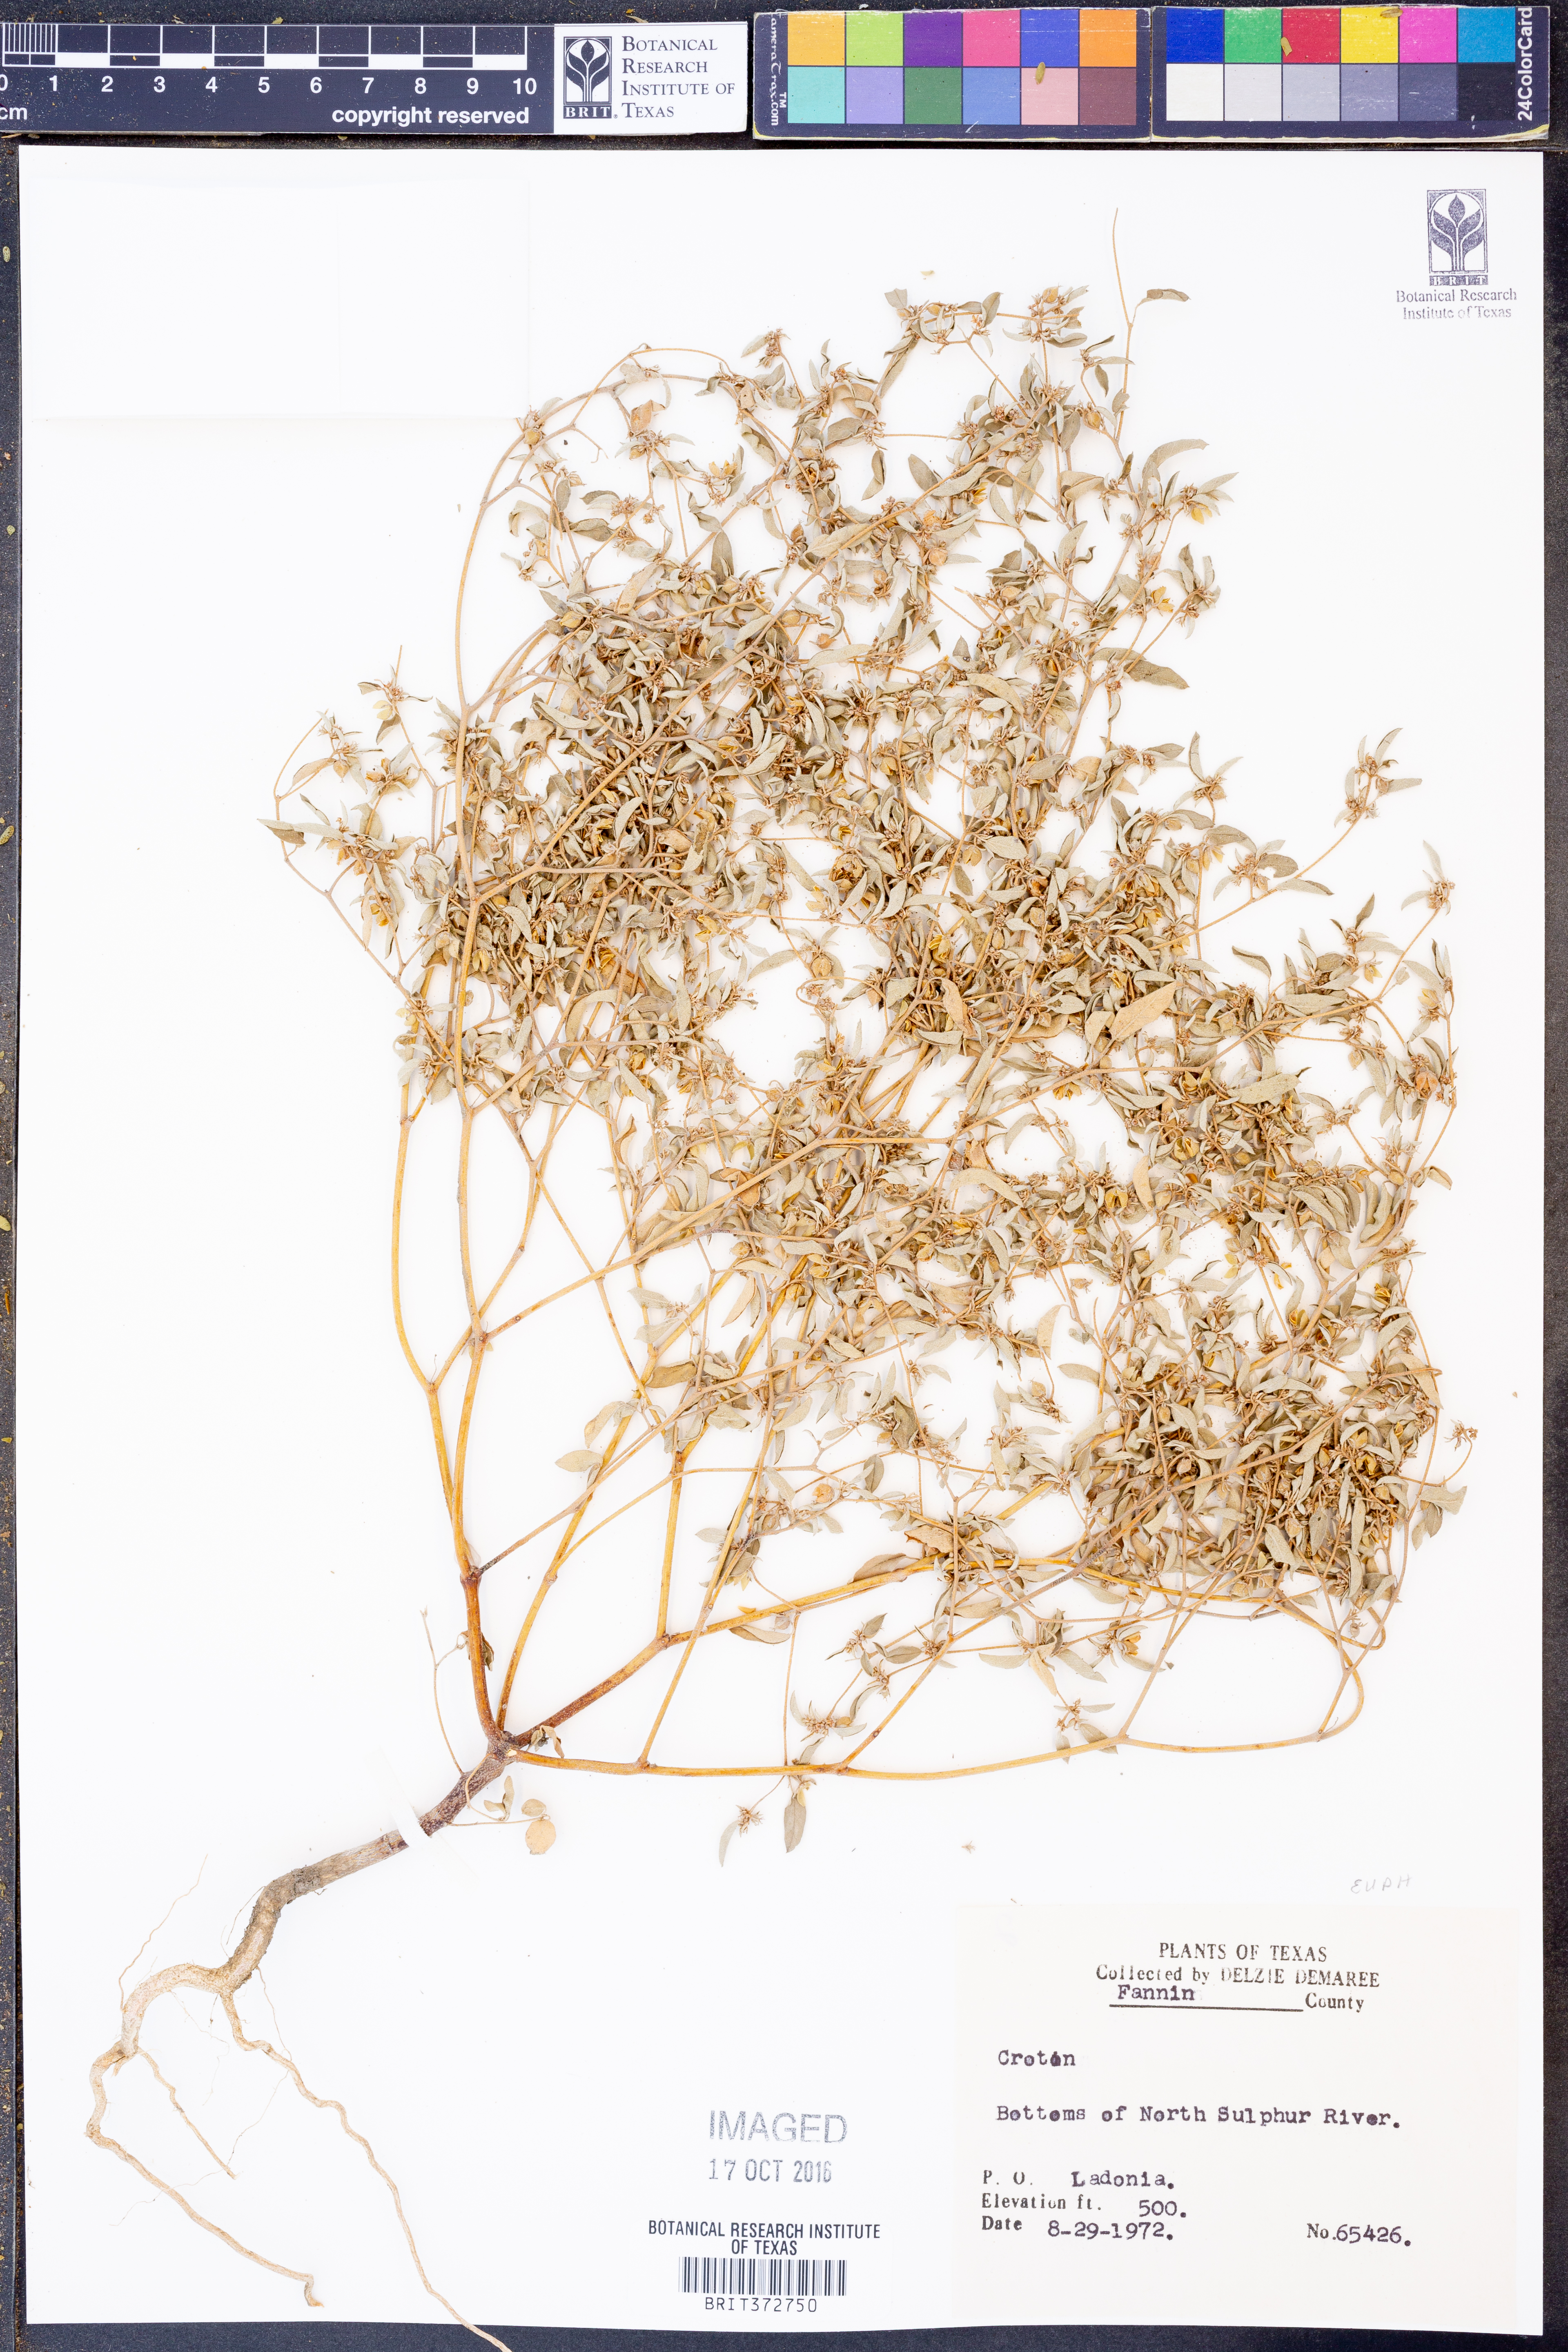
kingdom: Plantae
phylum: Tracheophyta
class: Magnoliopsida
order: Malpighiales
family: Euphorbiaceae
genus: Croton
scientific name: Croton
